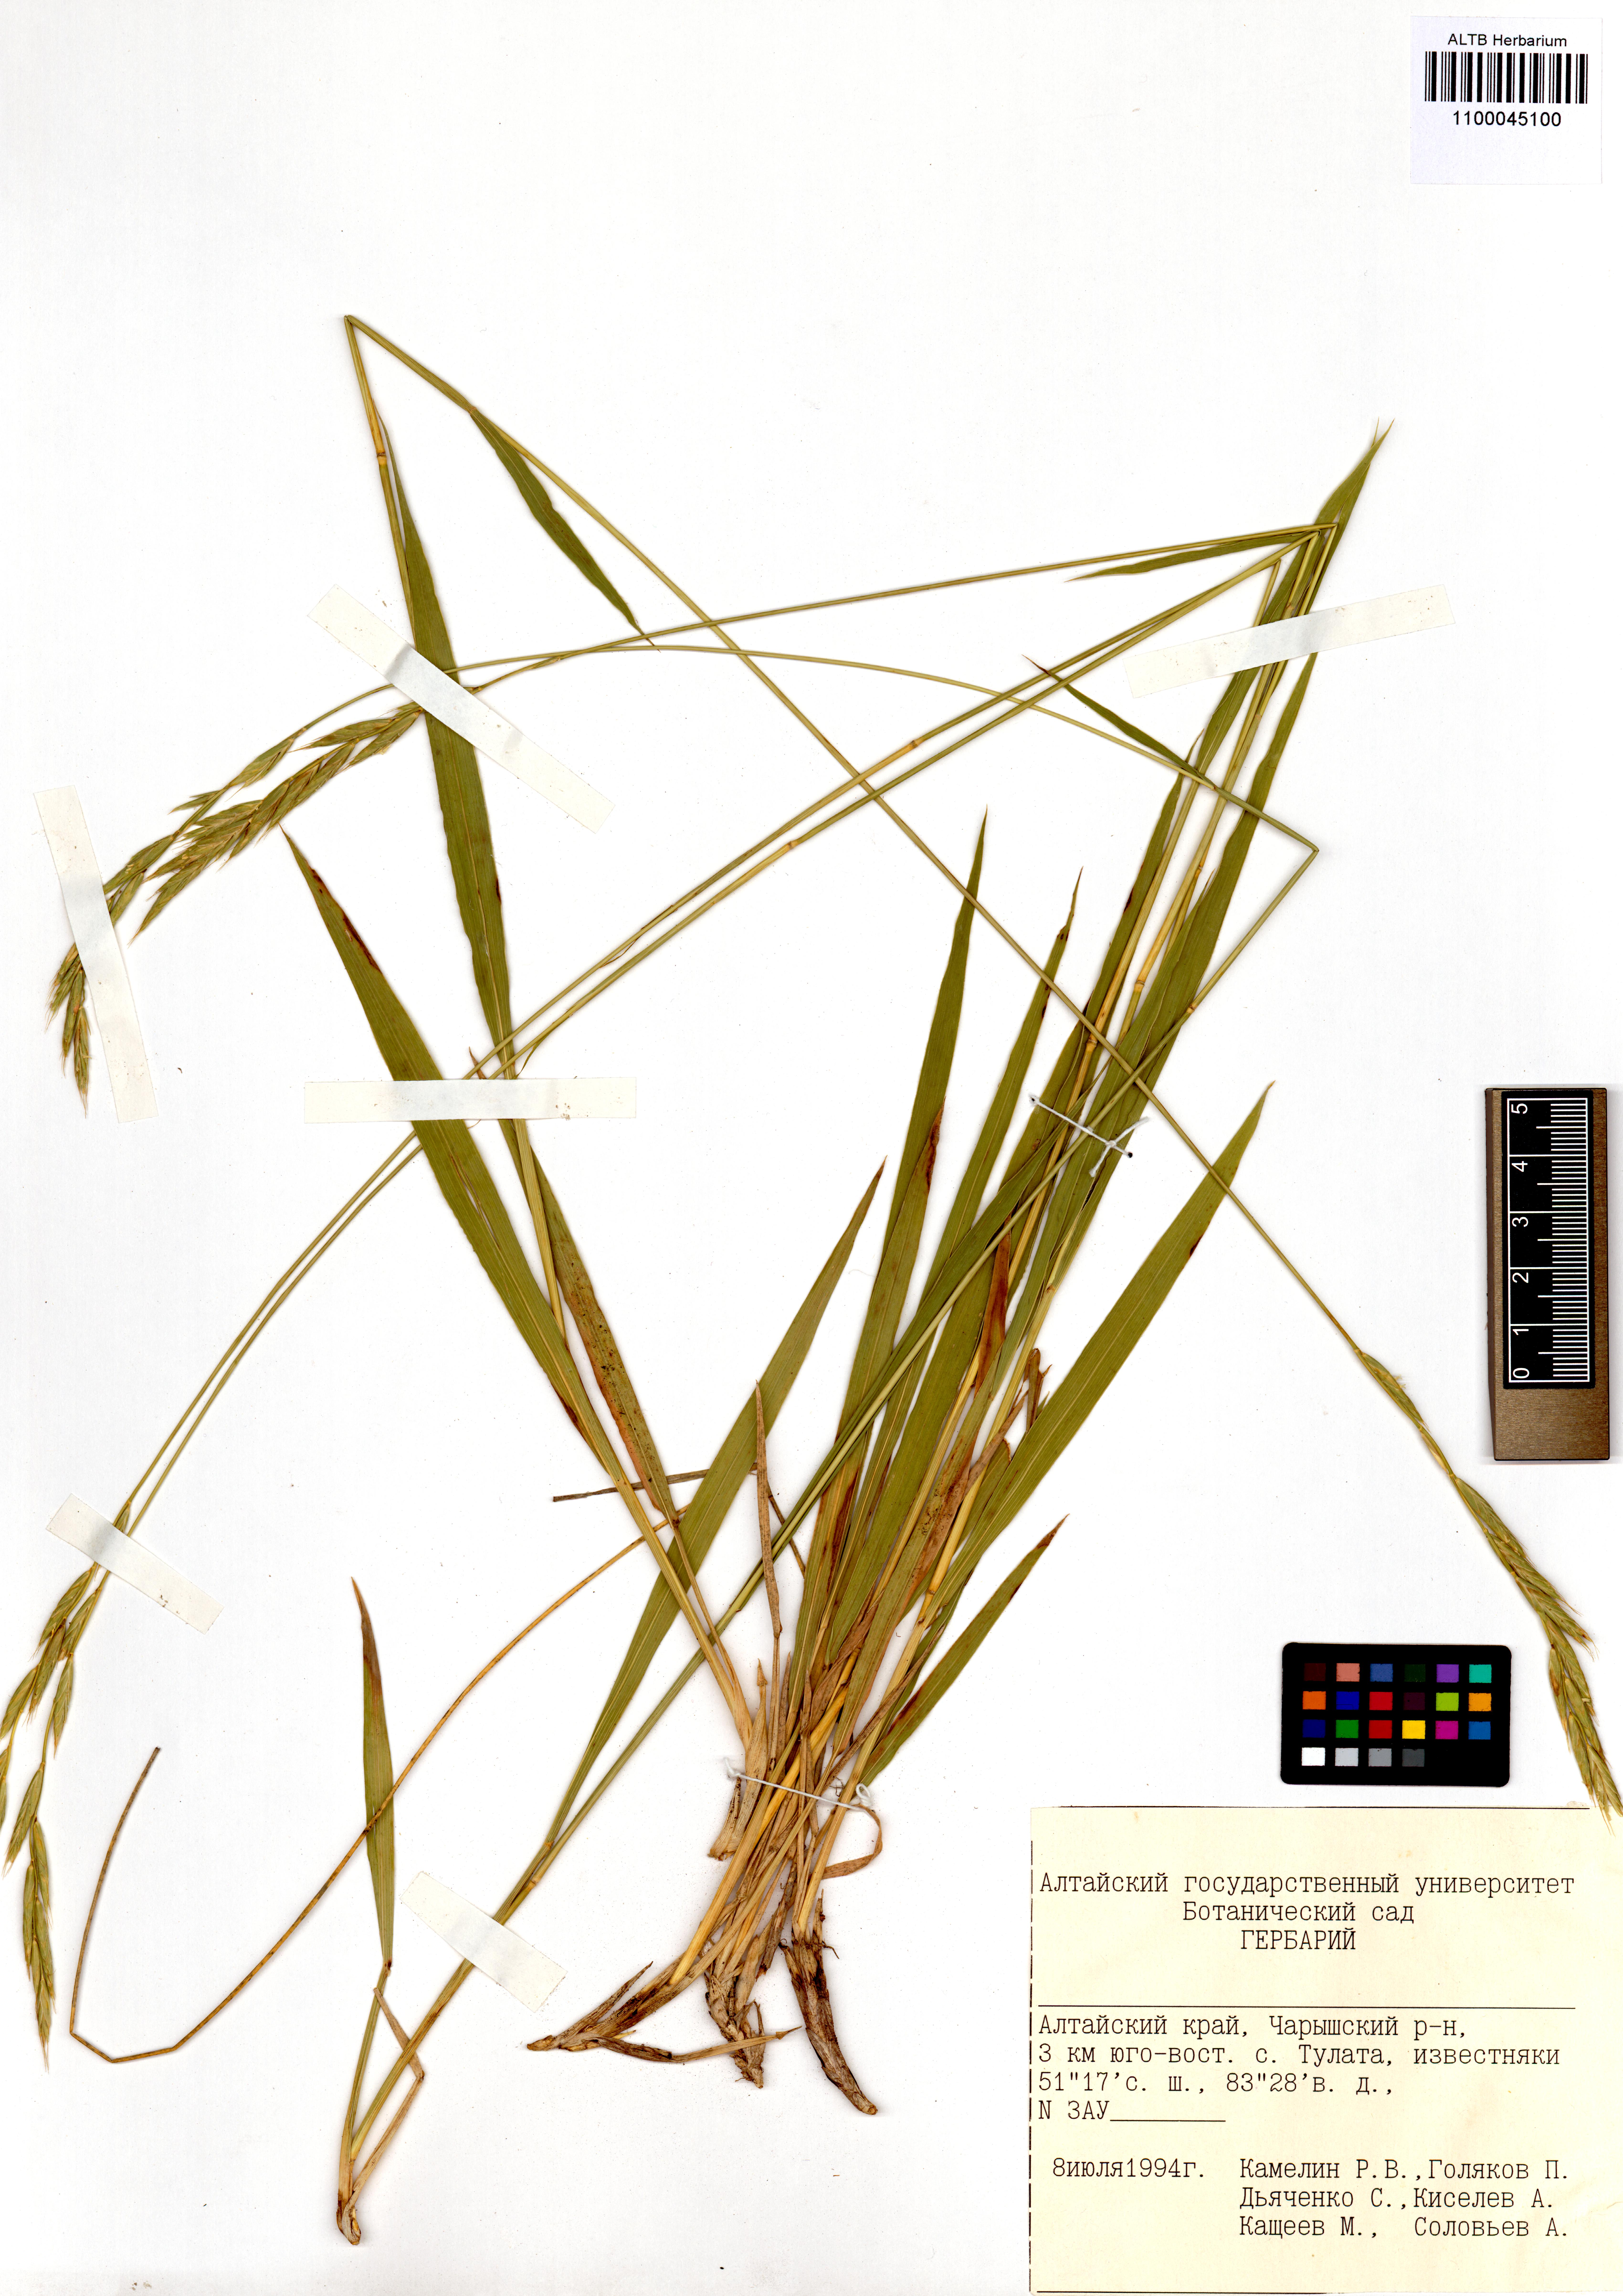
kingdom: Plantae
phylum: Tracheophyta
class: Liliopsida
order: Poales
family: Poaceae
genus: Brachypodium
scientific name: Brachypodium pinnatum
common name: Tor grass
